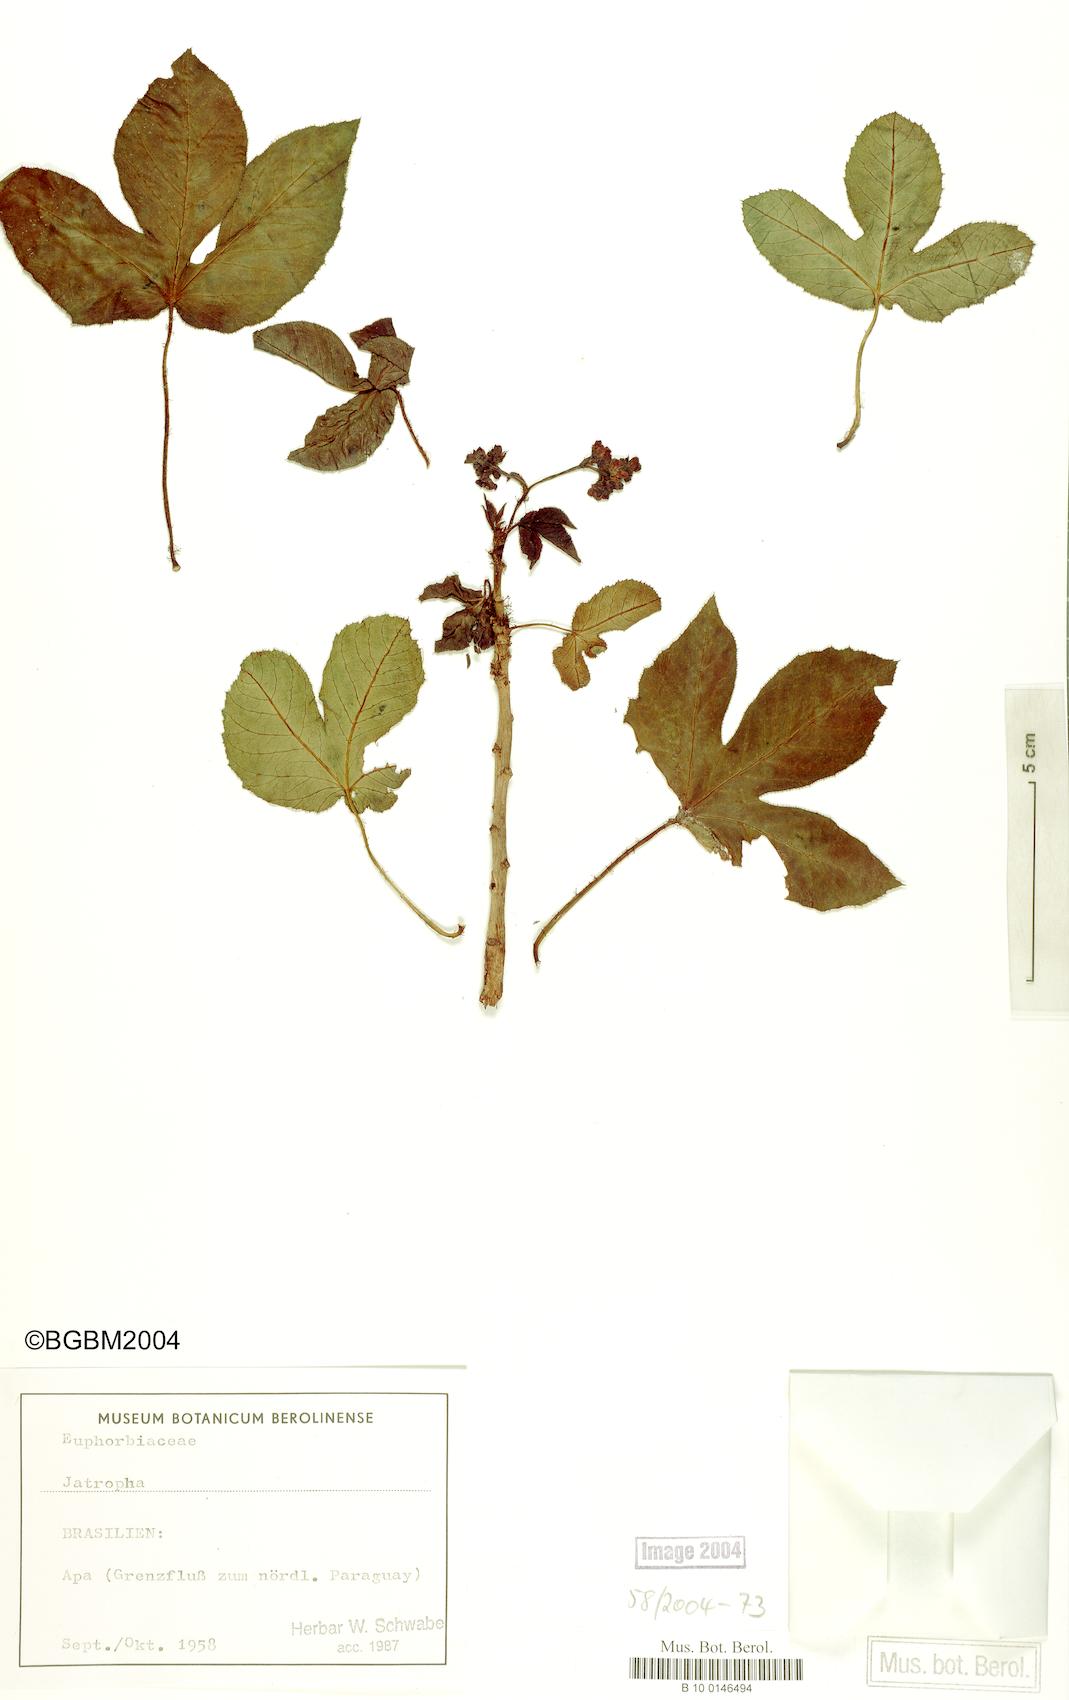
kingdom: Plantae
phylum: Tracheophyta
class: Magnoliopsida
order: Malpighiales
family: Euphorbiaceae
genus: Jatropha
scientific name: Jatropha
